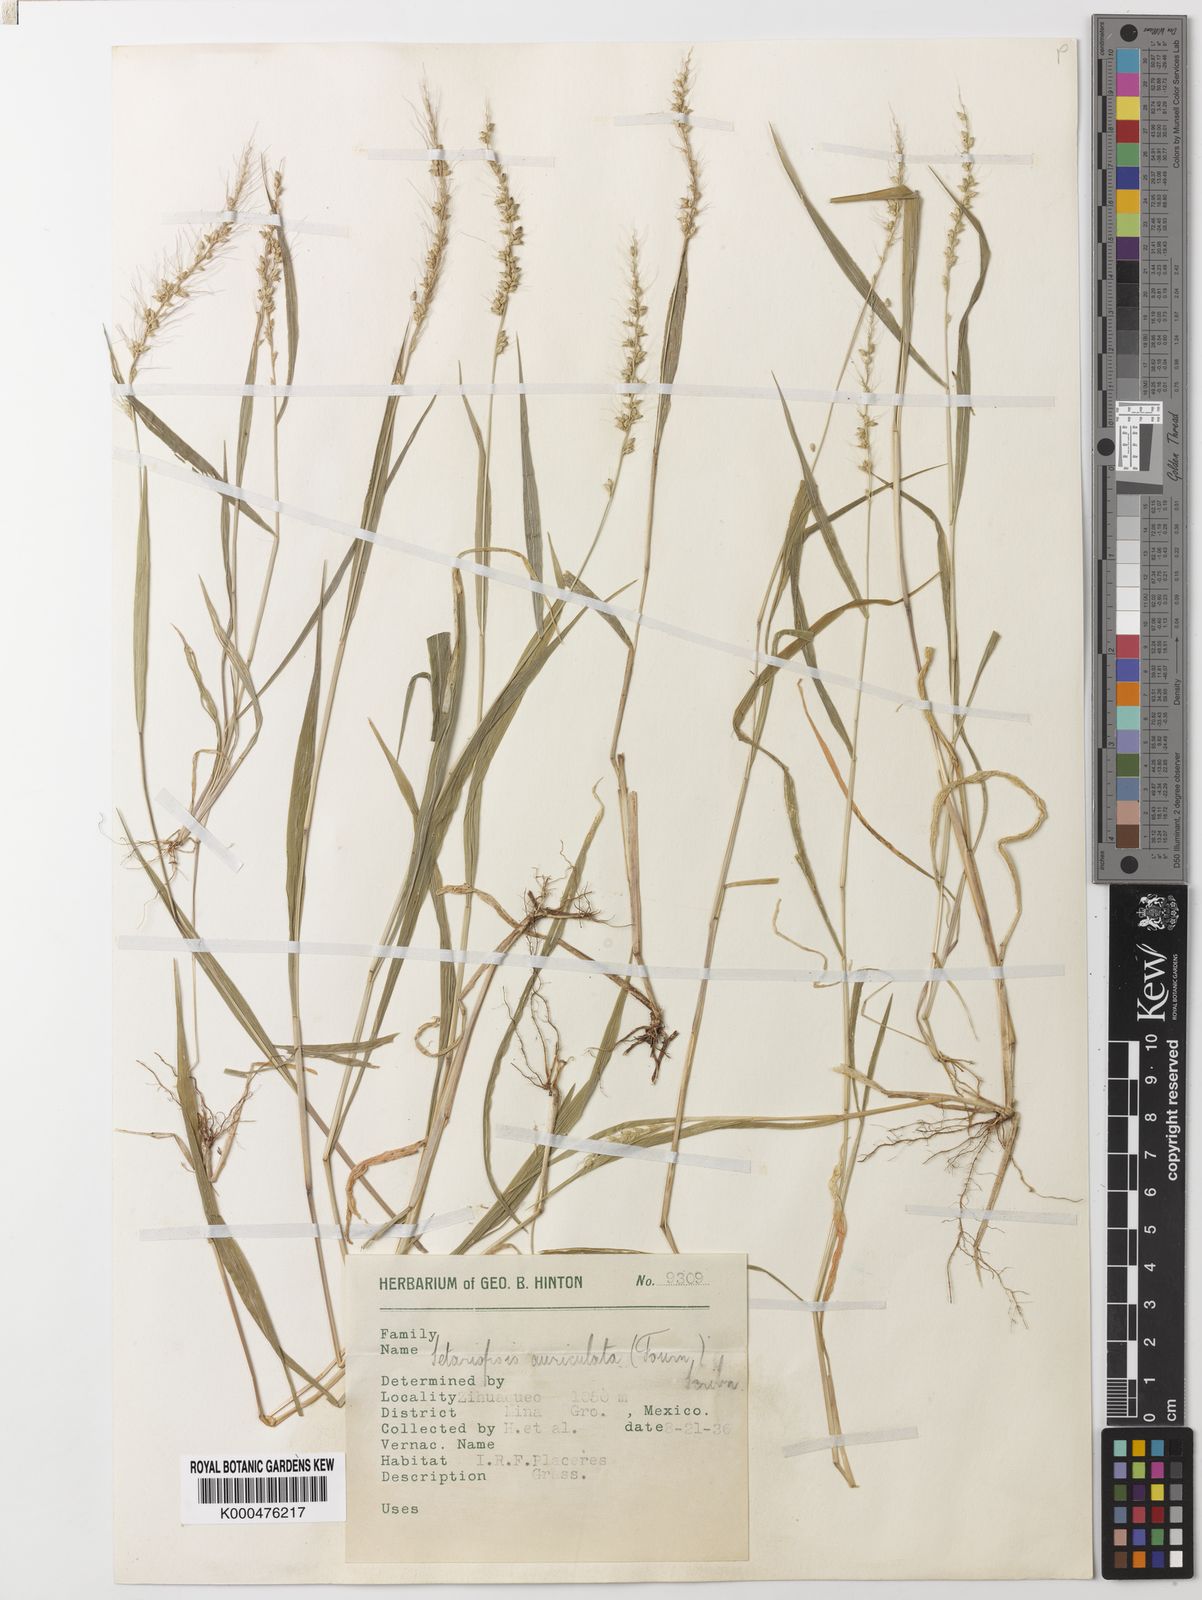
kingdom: Plantae
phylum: Tracheophyta
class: Liliopsida
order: Poales
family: Poaceae
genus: Setariopsis
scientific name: Setariopsis auriculata
